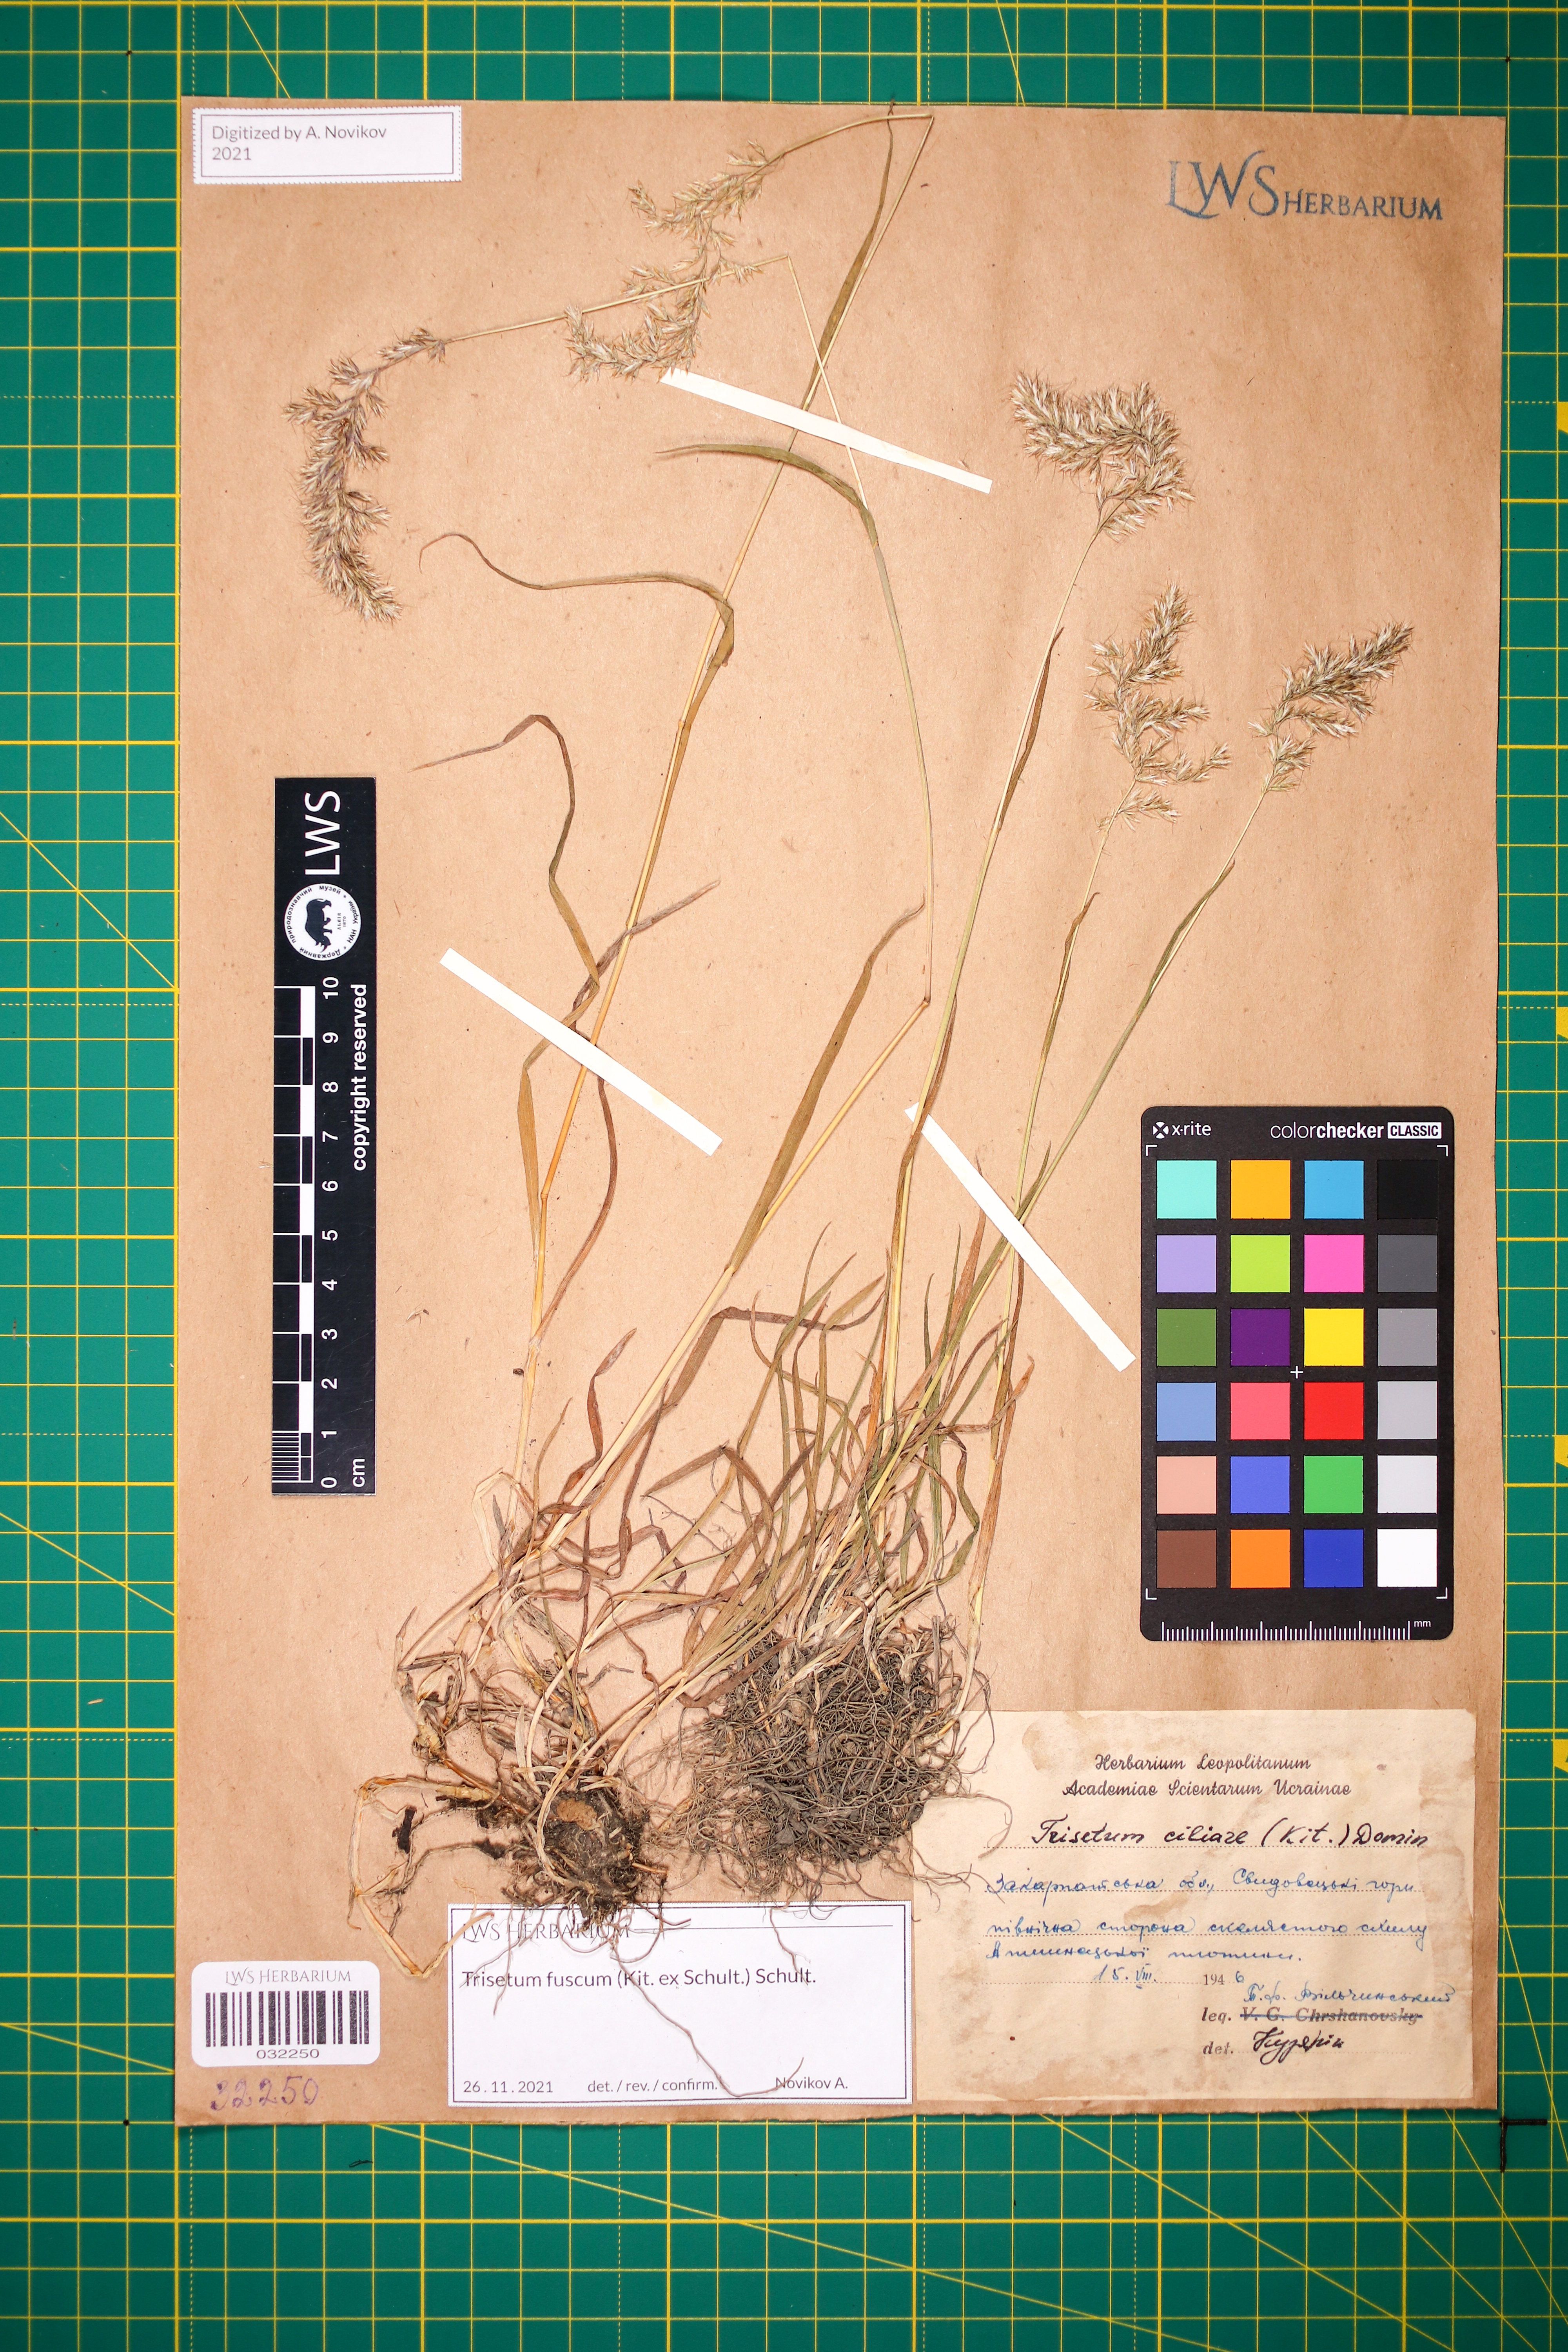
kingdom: Plantae
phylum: Tracheophyta
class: Liliopsida
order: Poales
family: Poaceae
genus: Trisetum
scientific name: Trisetum fuscum
